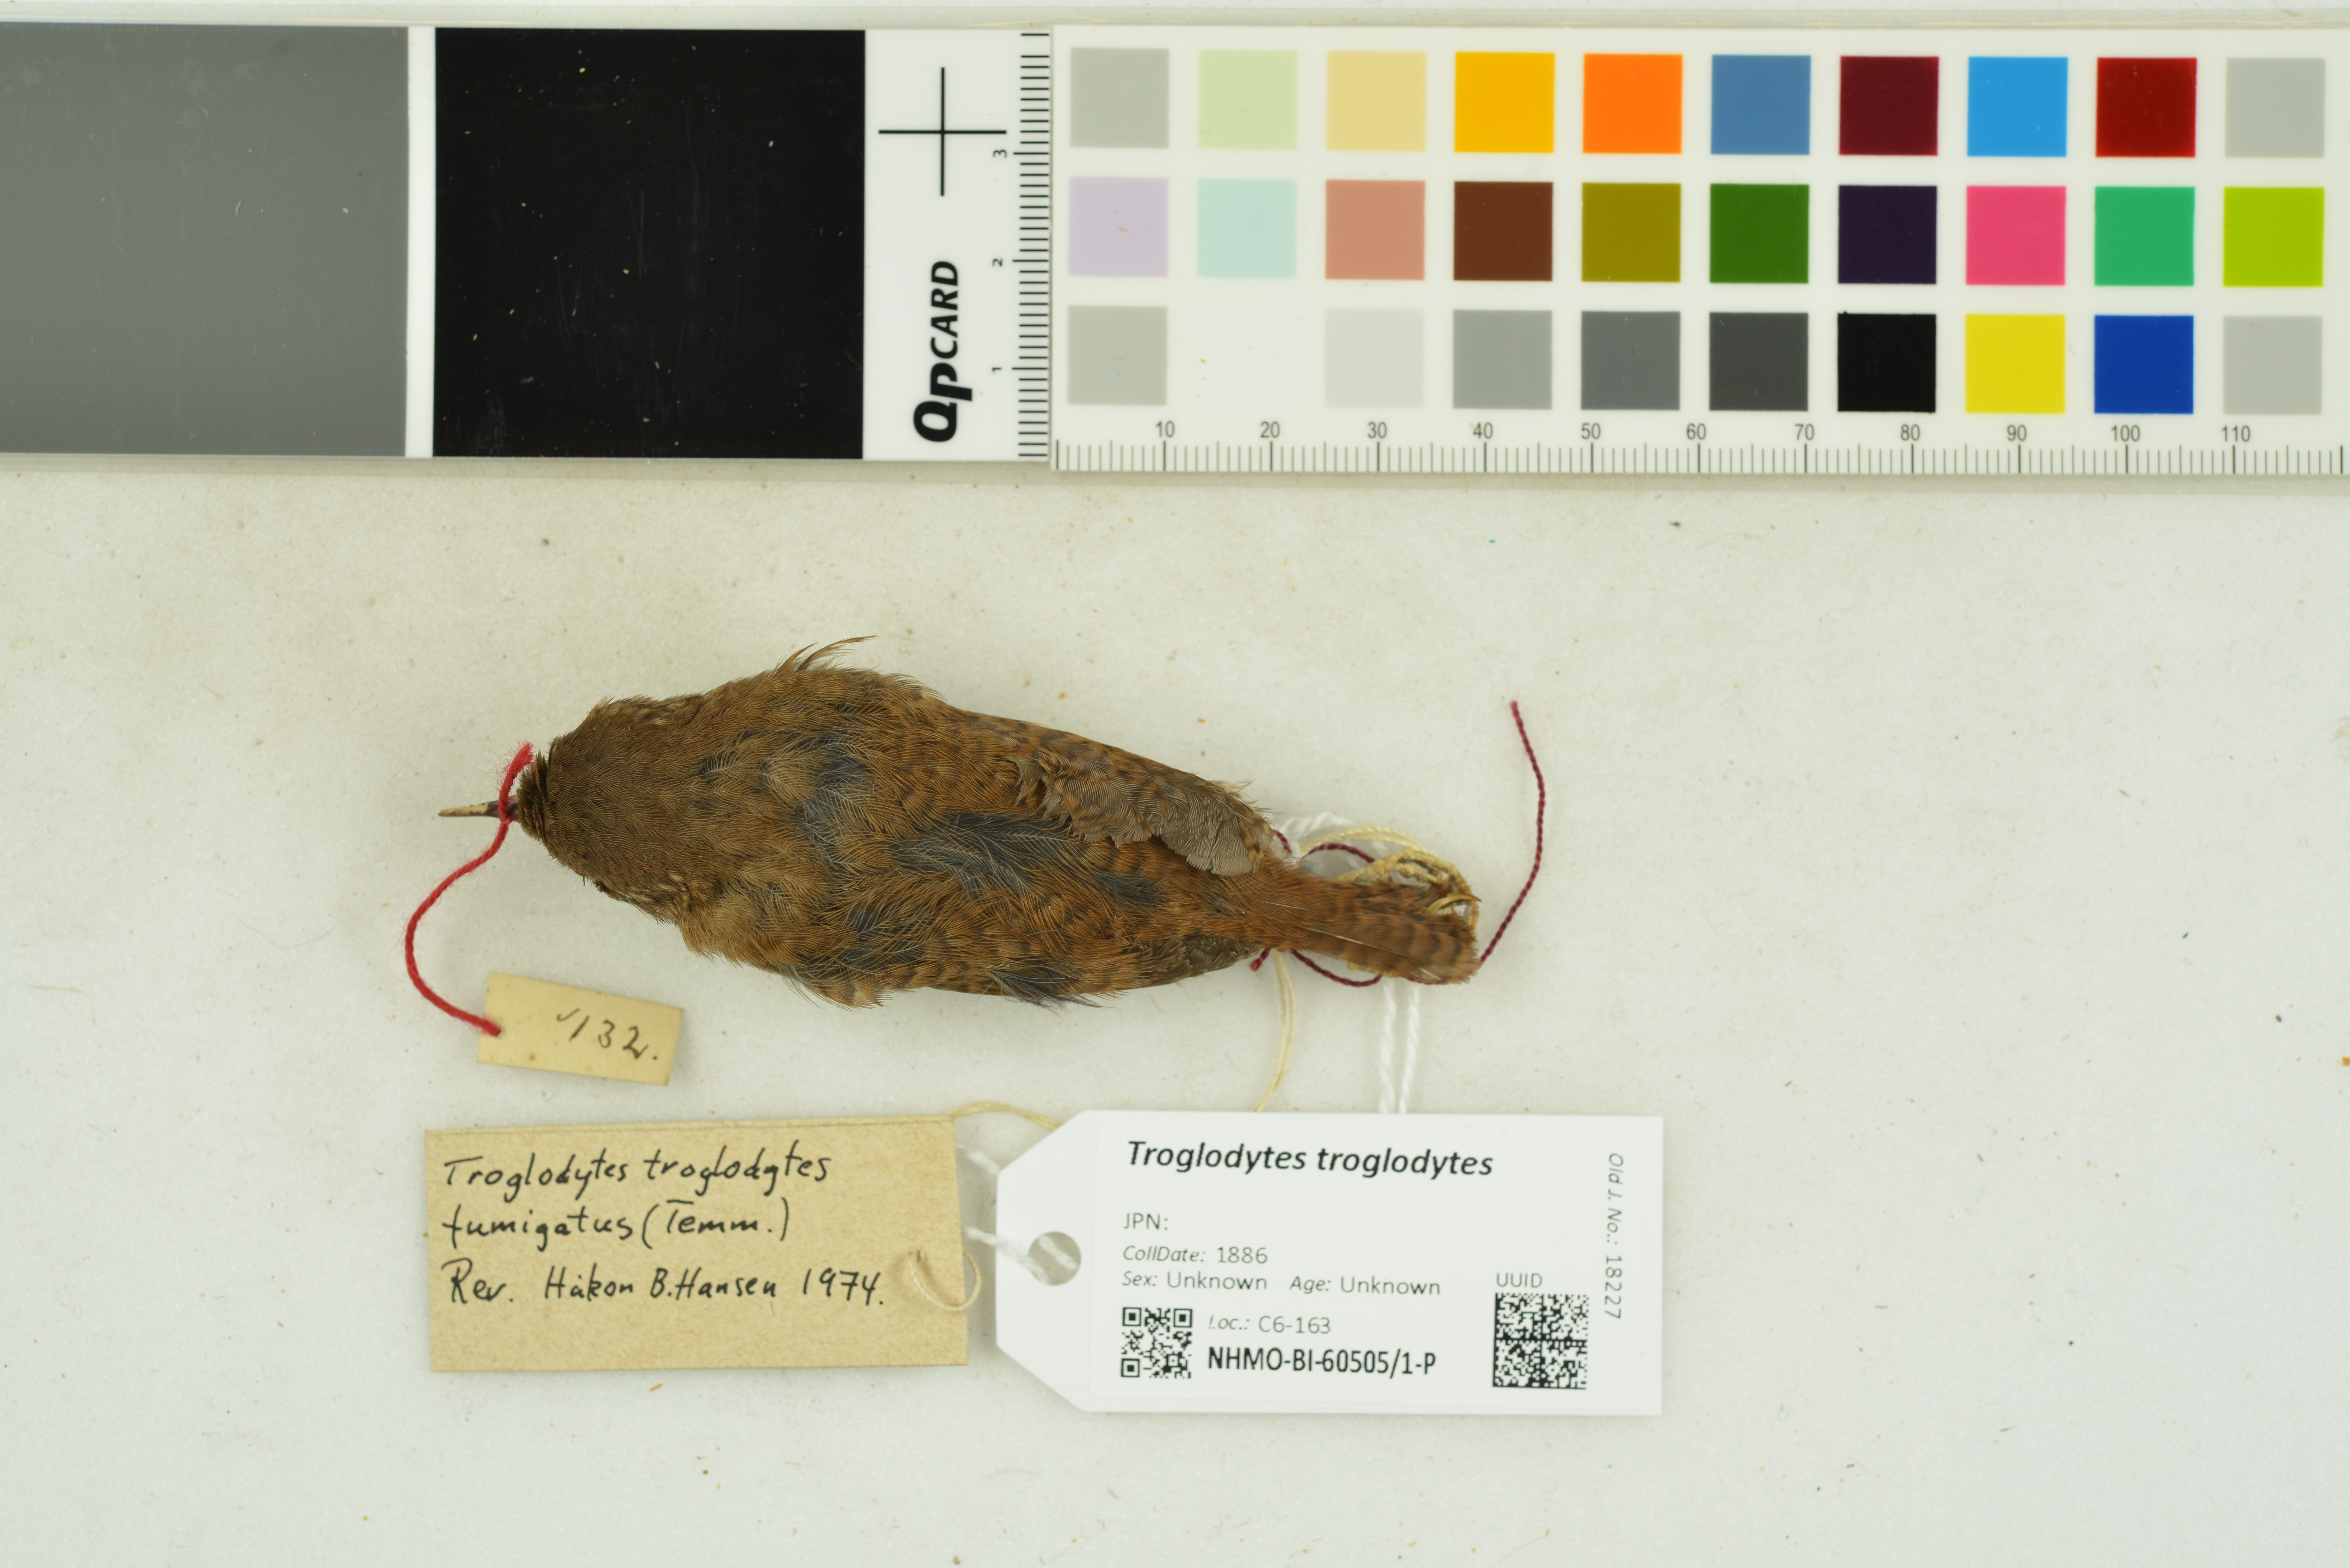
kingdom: Animalia
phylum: Chordata
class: Aves
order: Passeriformes
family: Troglodytidae
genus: Troglodytes
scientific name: Troglodytes troglodytes
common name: Eurasian wren
